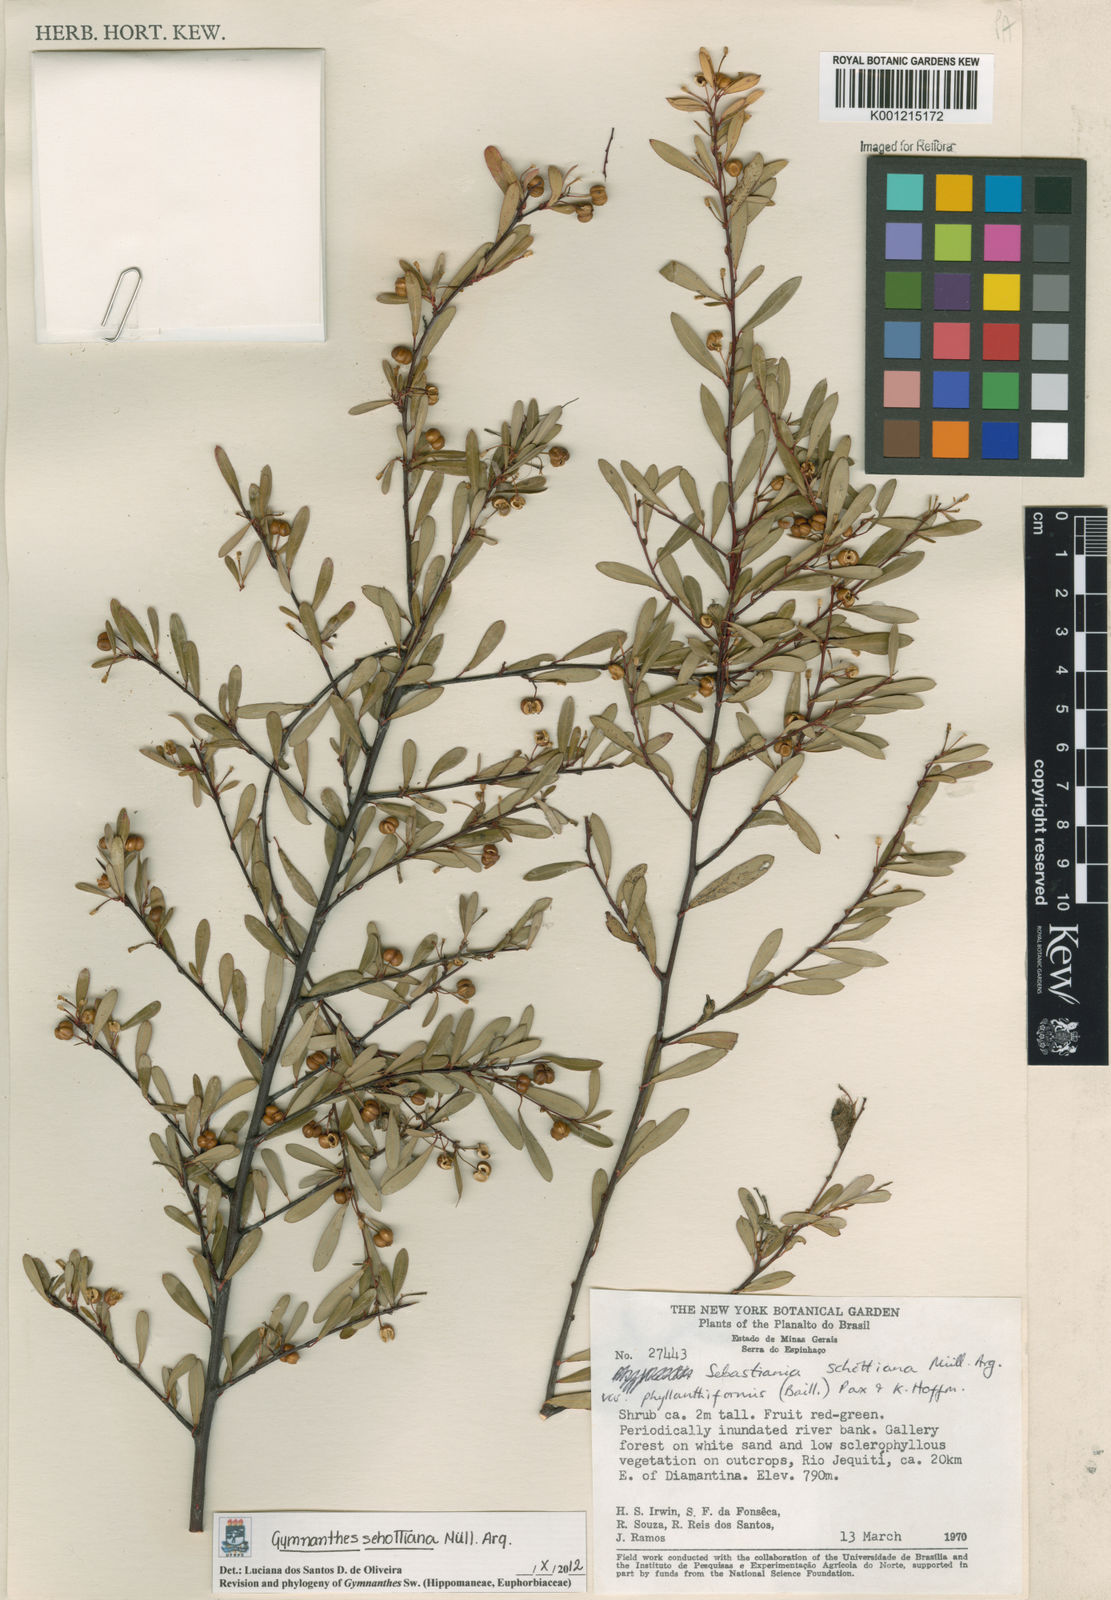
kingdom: Plantae
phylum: Tracheophyta
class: Magnoliopsida
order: Malpighiales
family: Euphorbiaceae
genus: Gymnanthes
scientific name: Gymnanthes
